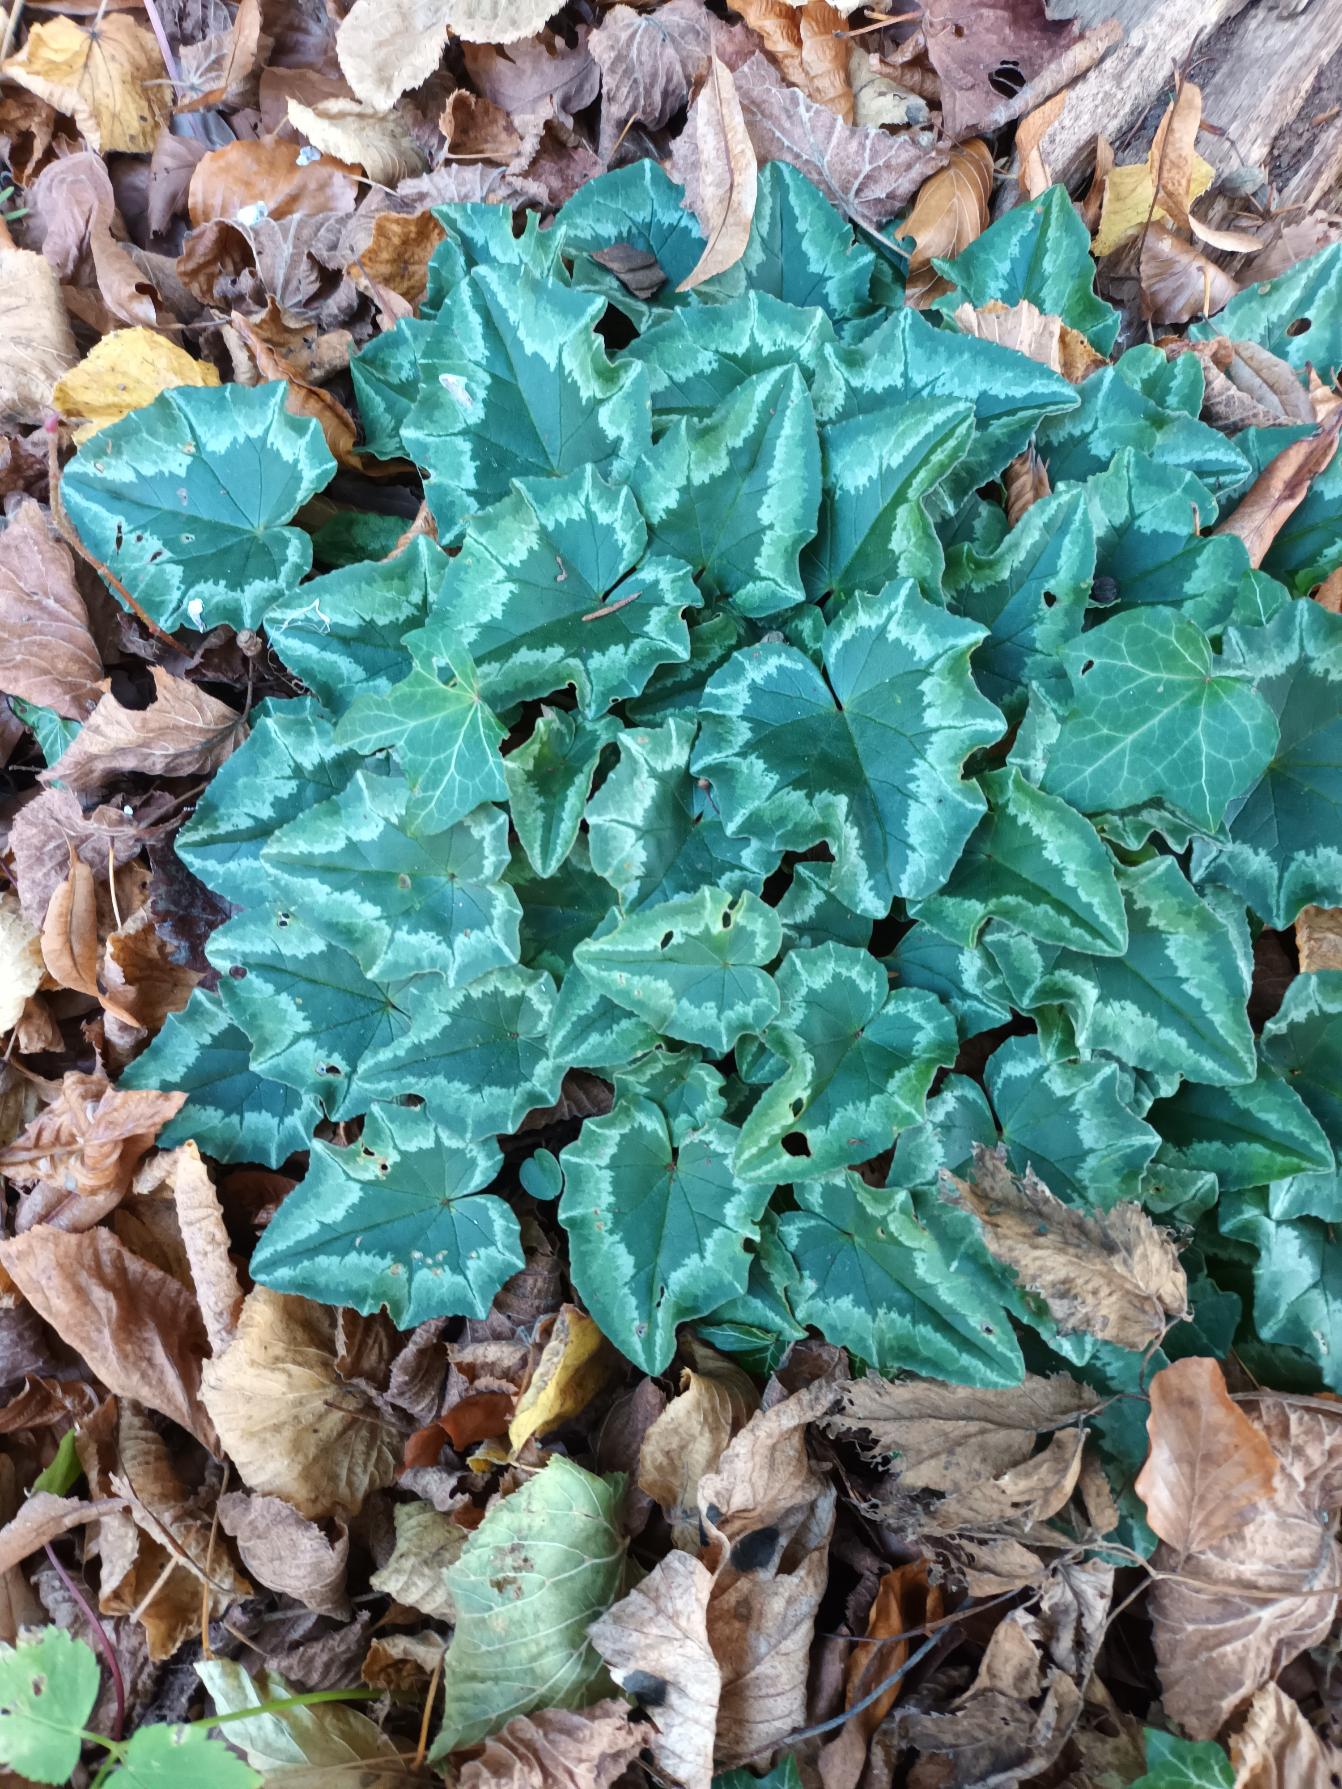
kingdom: Plantae
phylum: Tracheophyta
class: Magnoliopsida
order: Ericales
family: Primulaceae
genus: Cyclamen
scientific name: Cyclamen hederifolium
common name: Vedbendbladet alpeviol
